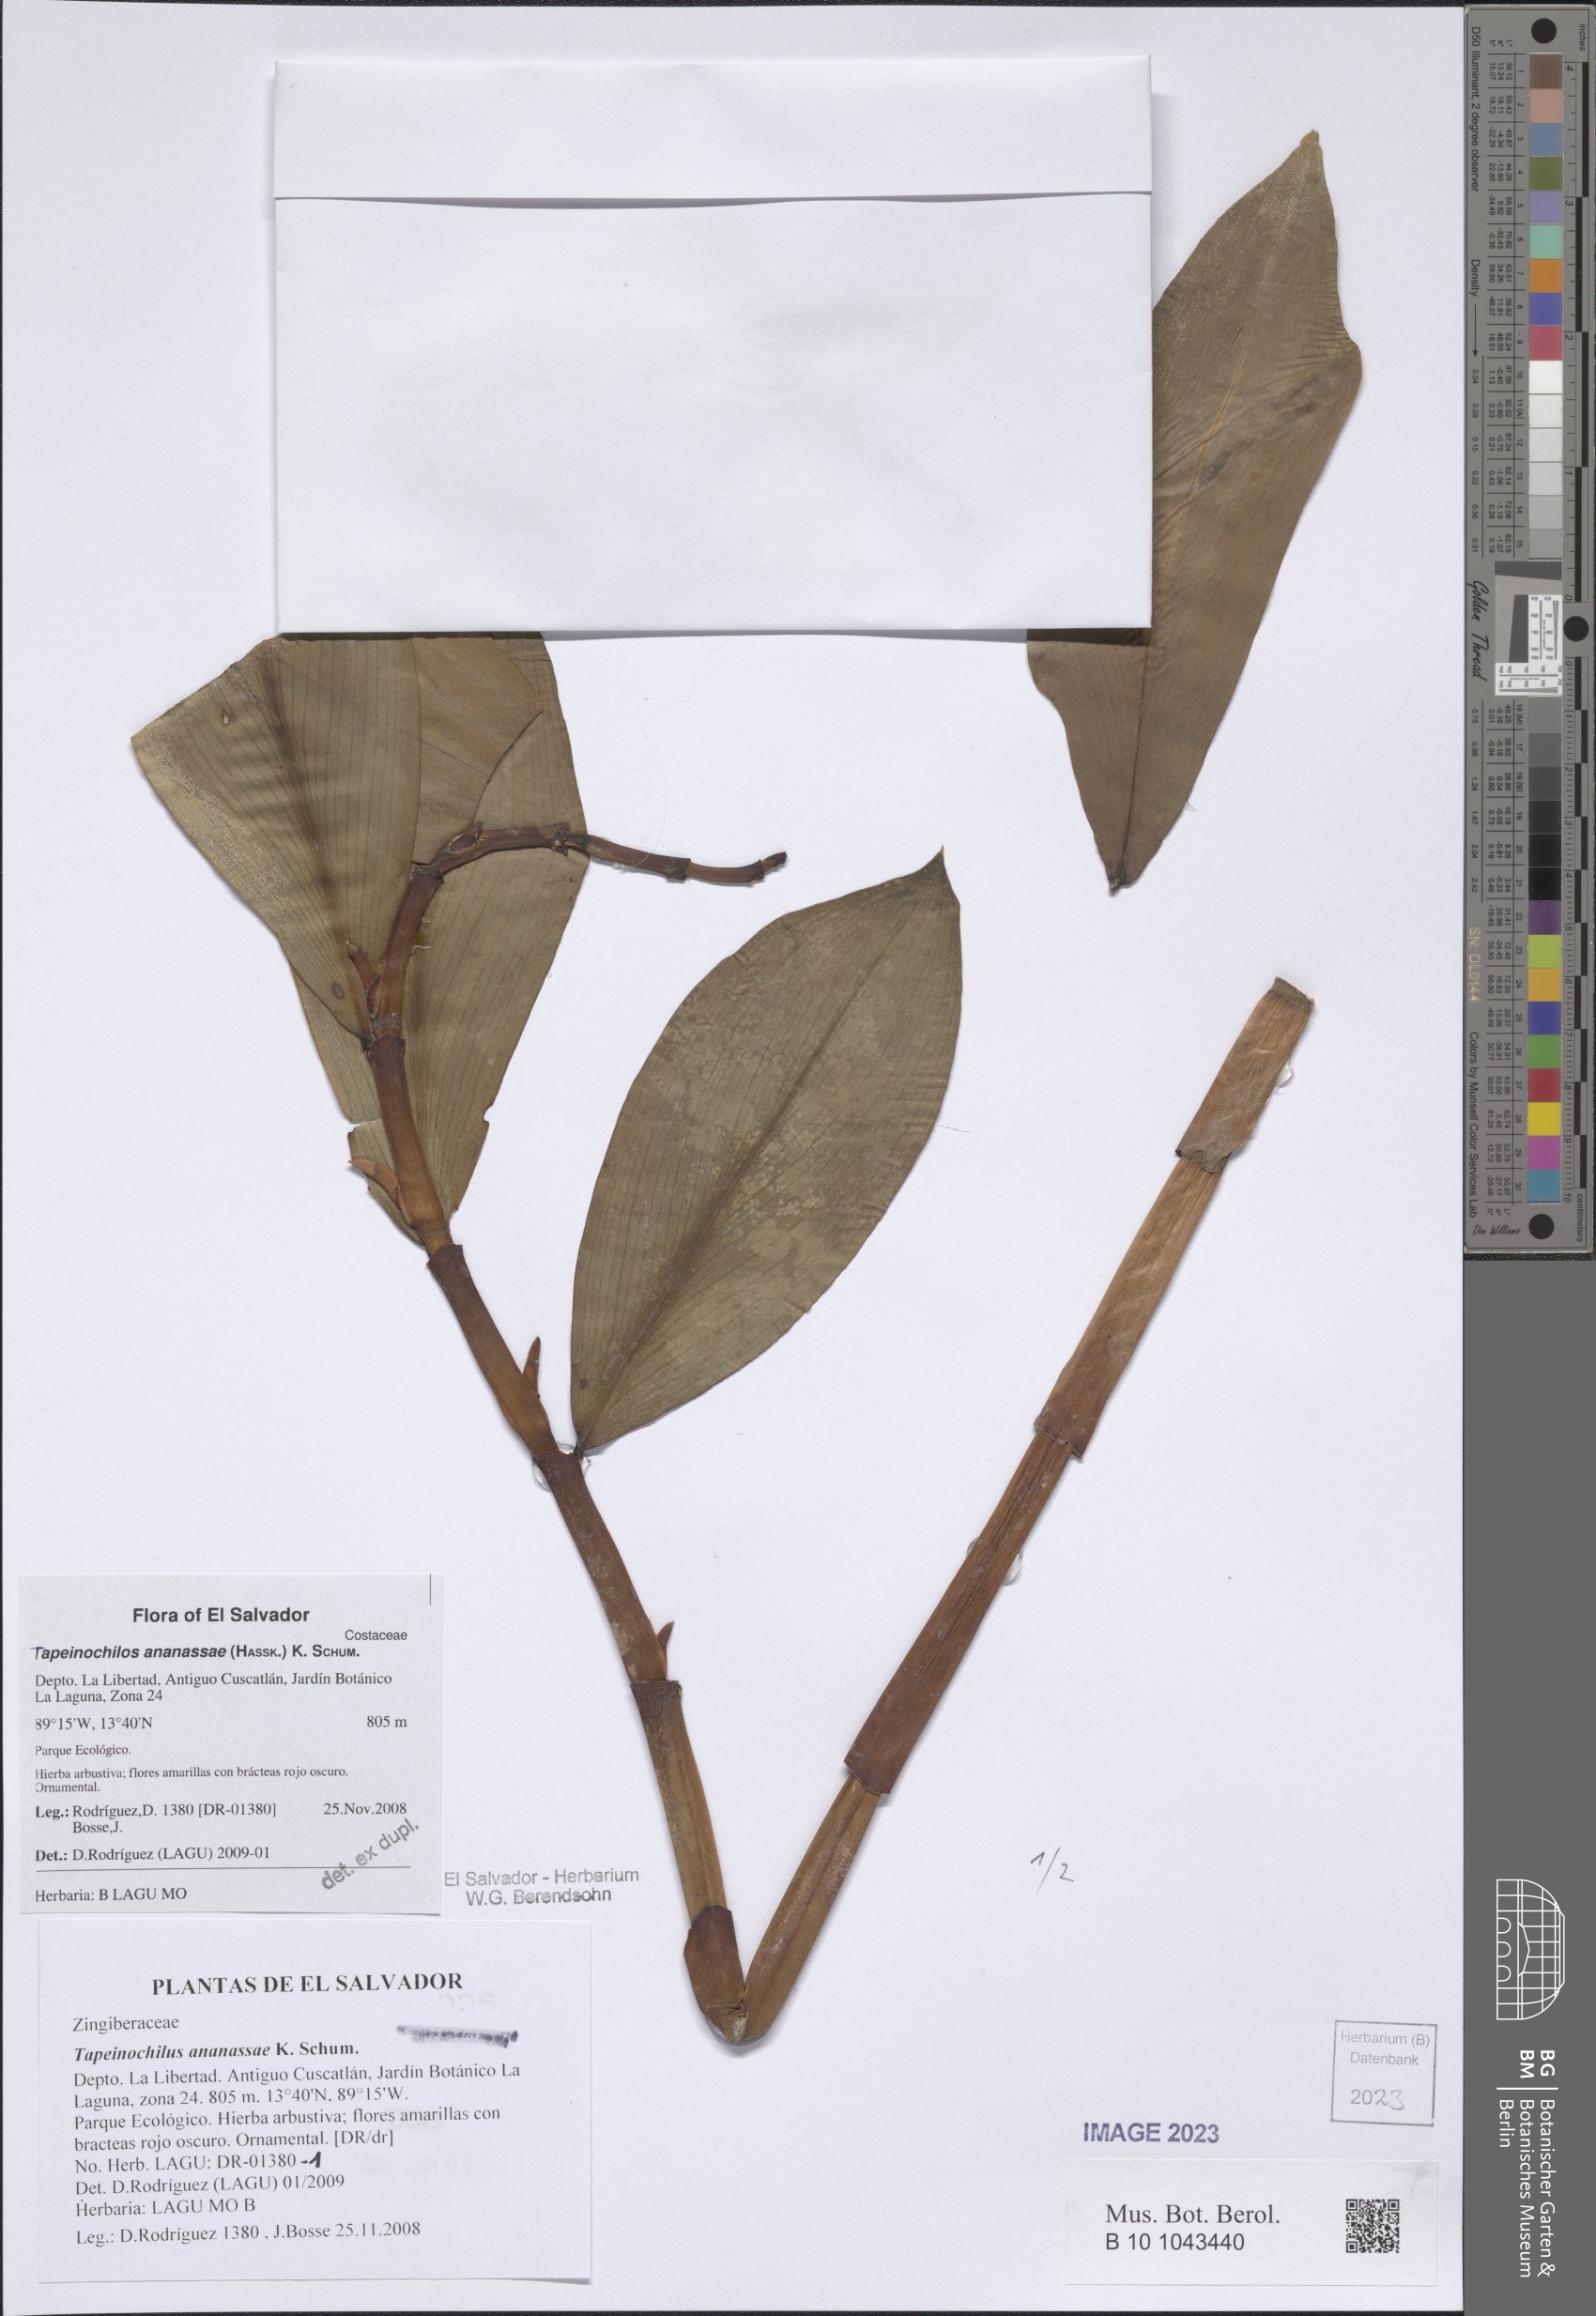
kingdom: Plantae
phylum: Tracheophyta
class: Liliopsida
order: Zingiberales
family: Costaceae
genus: Tapeinochilos
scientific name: Tapeinochilos ananassae
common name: Torch-ginger
